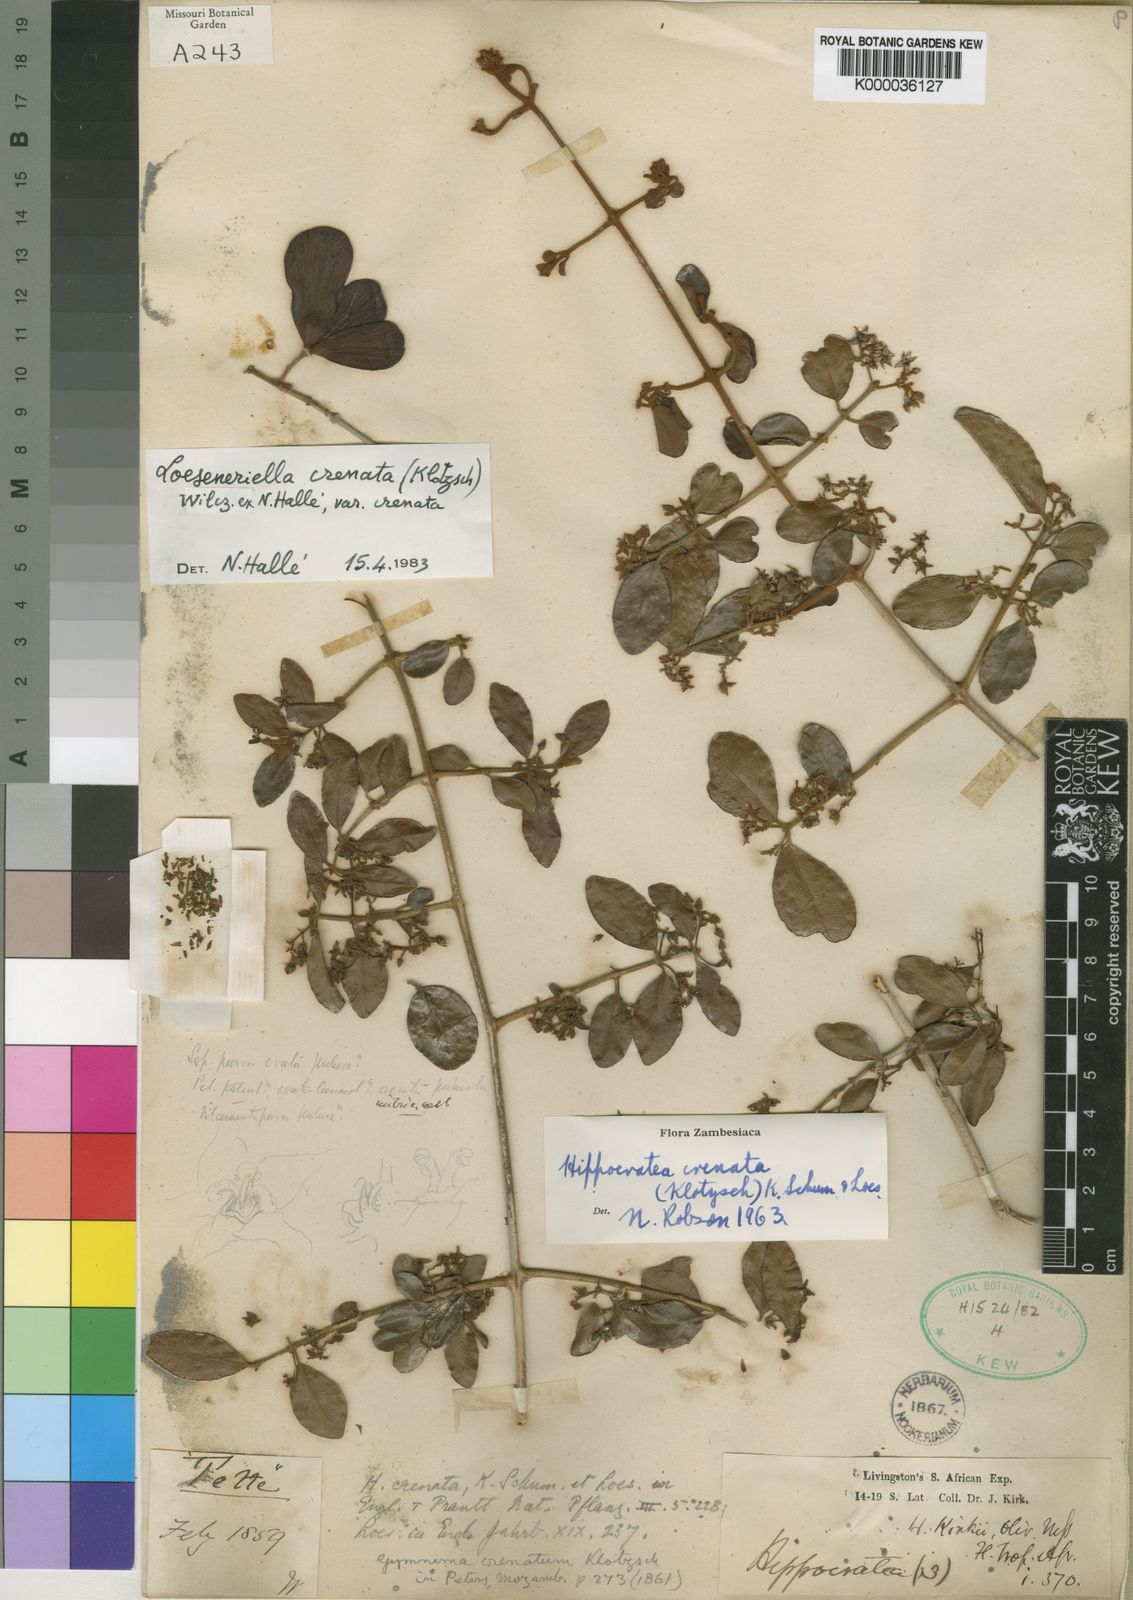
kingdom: Plantae
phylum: Tracheophyta
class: Magnoliopsida
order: Celastrales
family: Celastraceae
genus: Loeseneriella
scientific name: Loeseneriella
